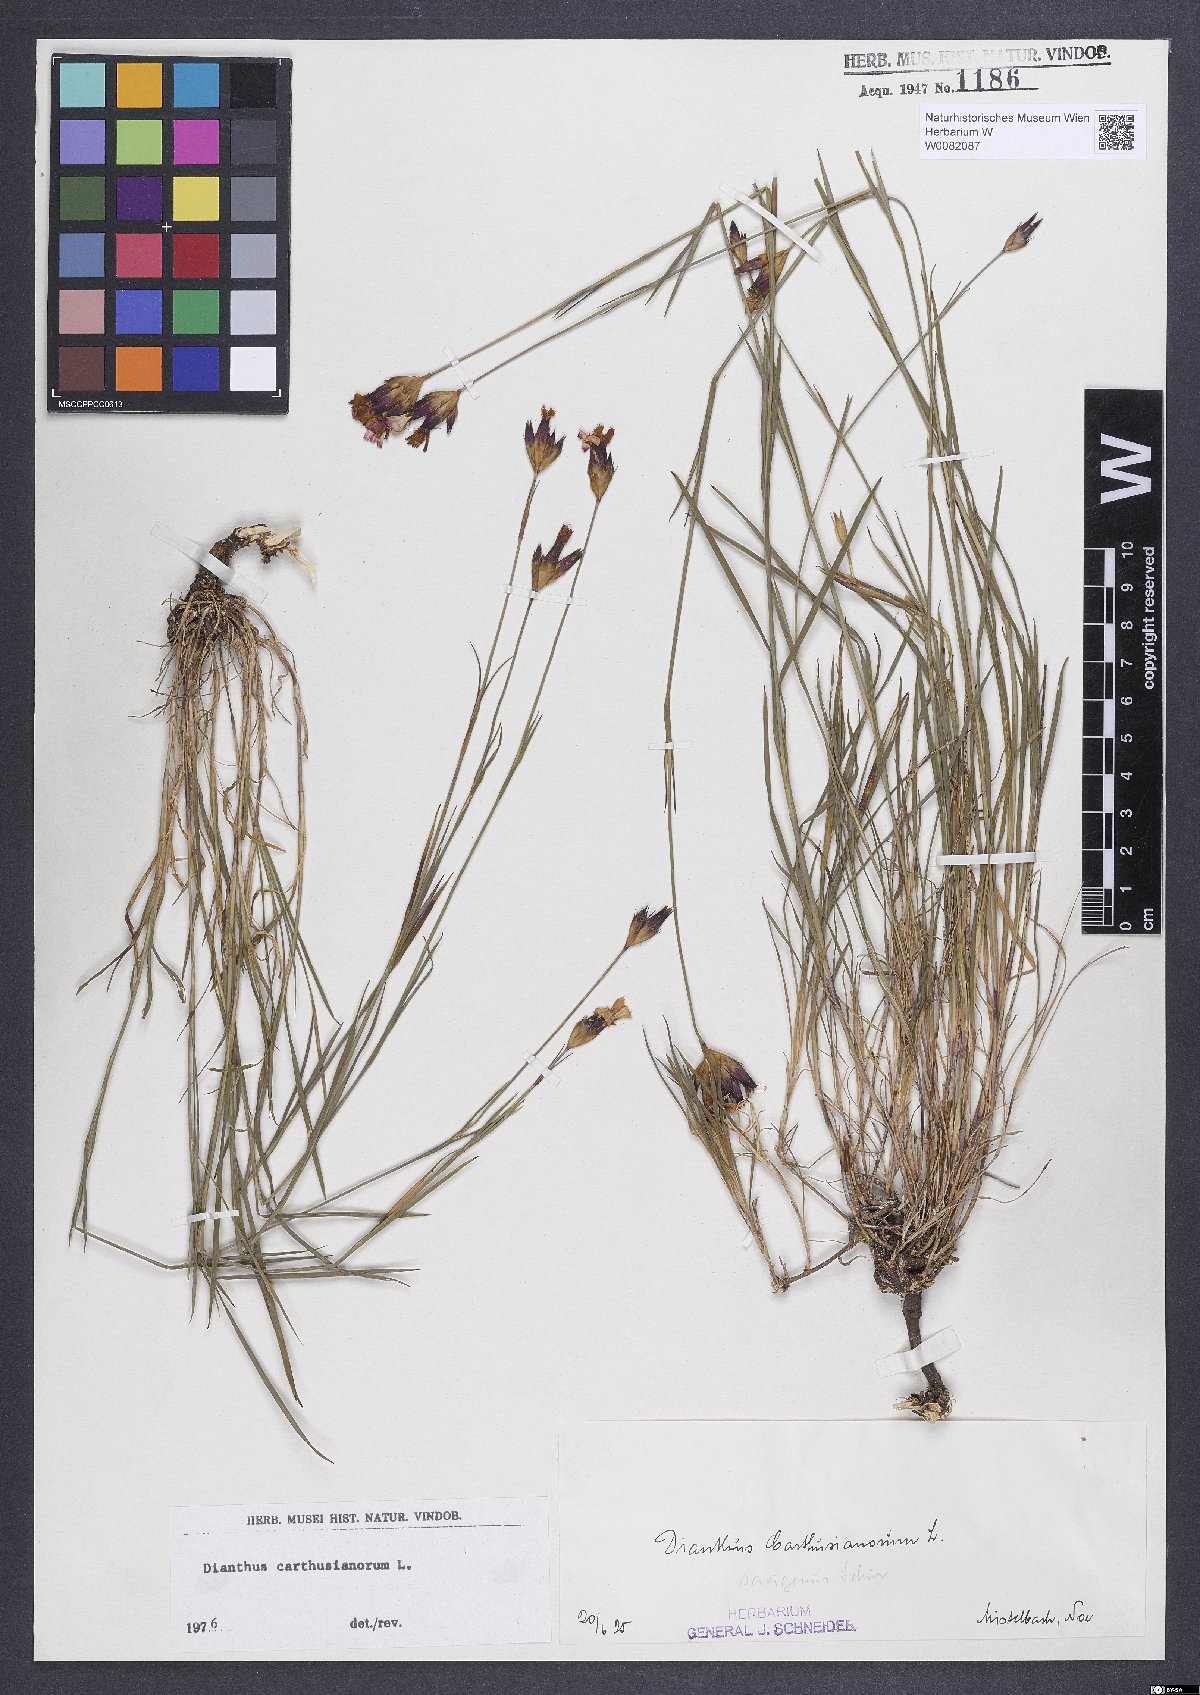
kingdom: Plantae
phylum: Tracheophyta
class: Magnoliopsida
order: Caryophyllales
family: Caryophyllaceae
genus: Dianthus
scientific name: Dianthus carthusianorum
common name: Carthusian pink
